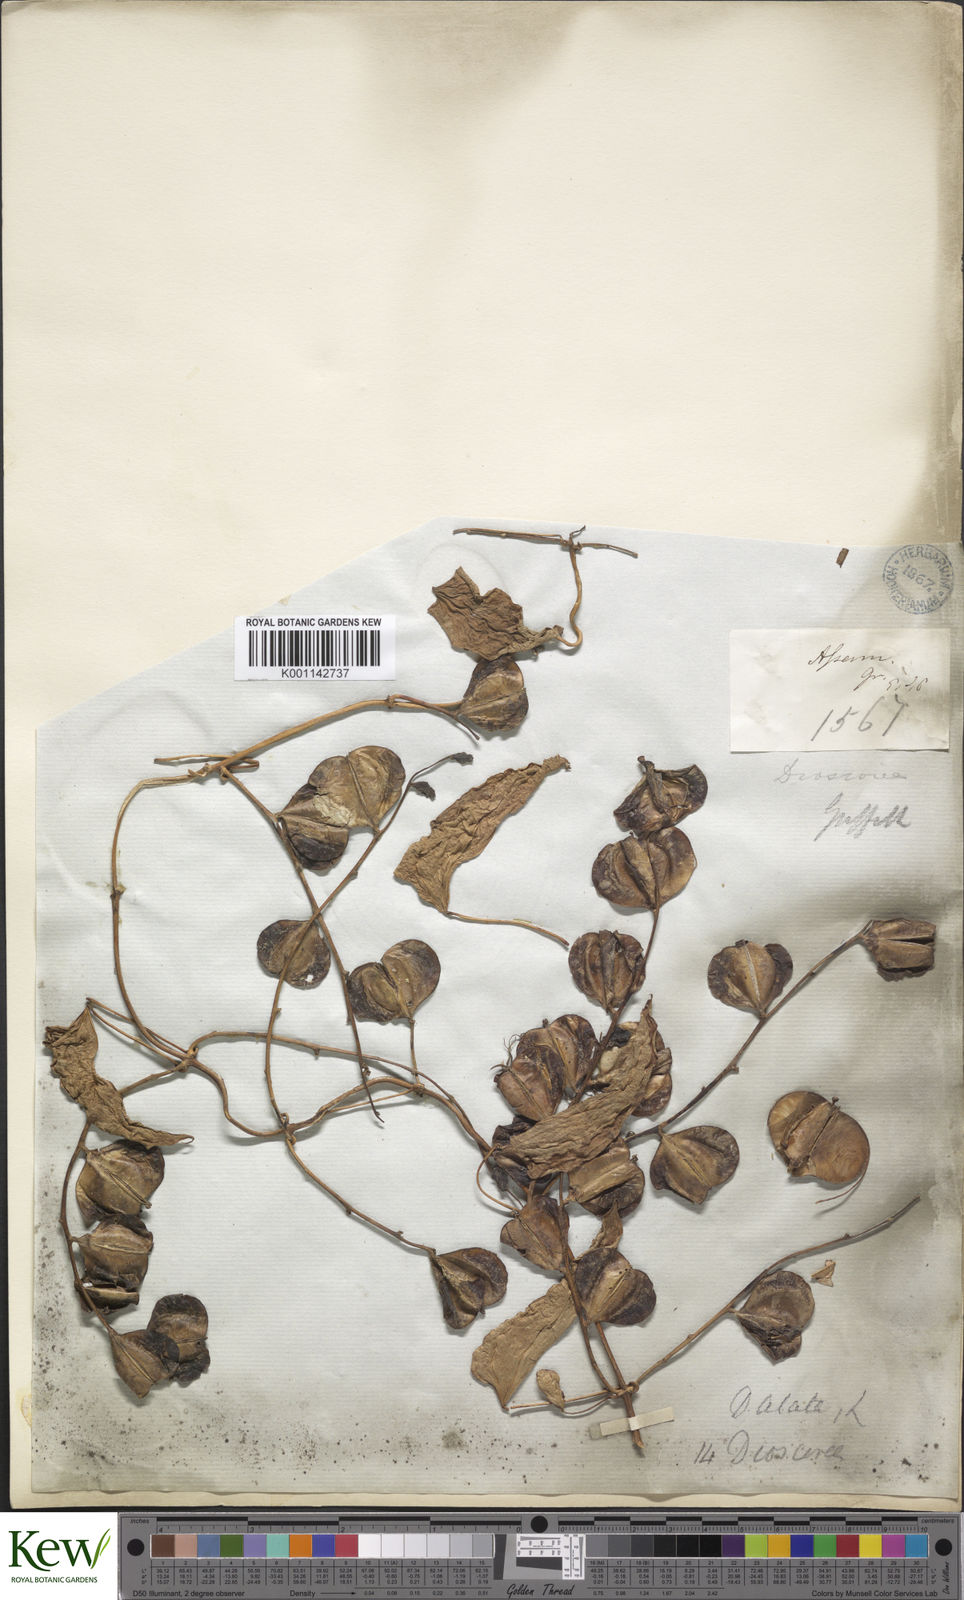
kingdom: Plantae
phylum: Tracheophyta
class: Liliopsida
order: Dioscoreales
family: Dioscoreaceae
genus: Dioscorea
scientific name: Dioscorea alata
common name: Water yam
